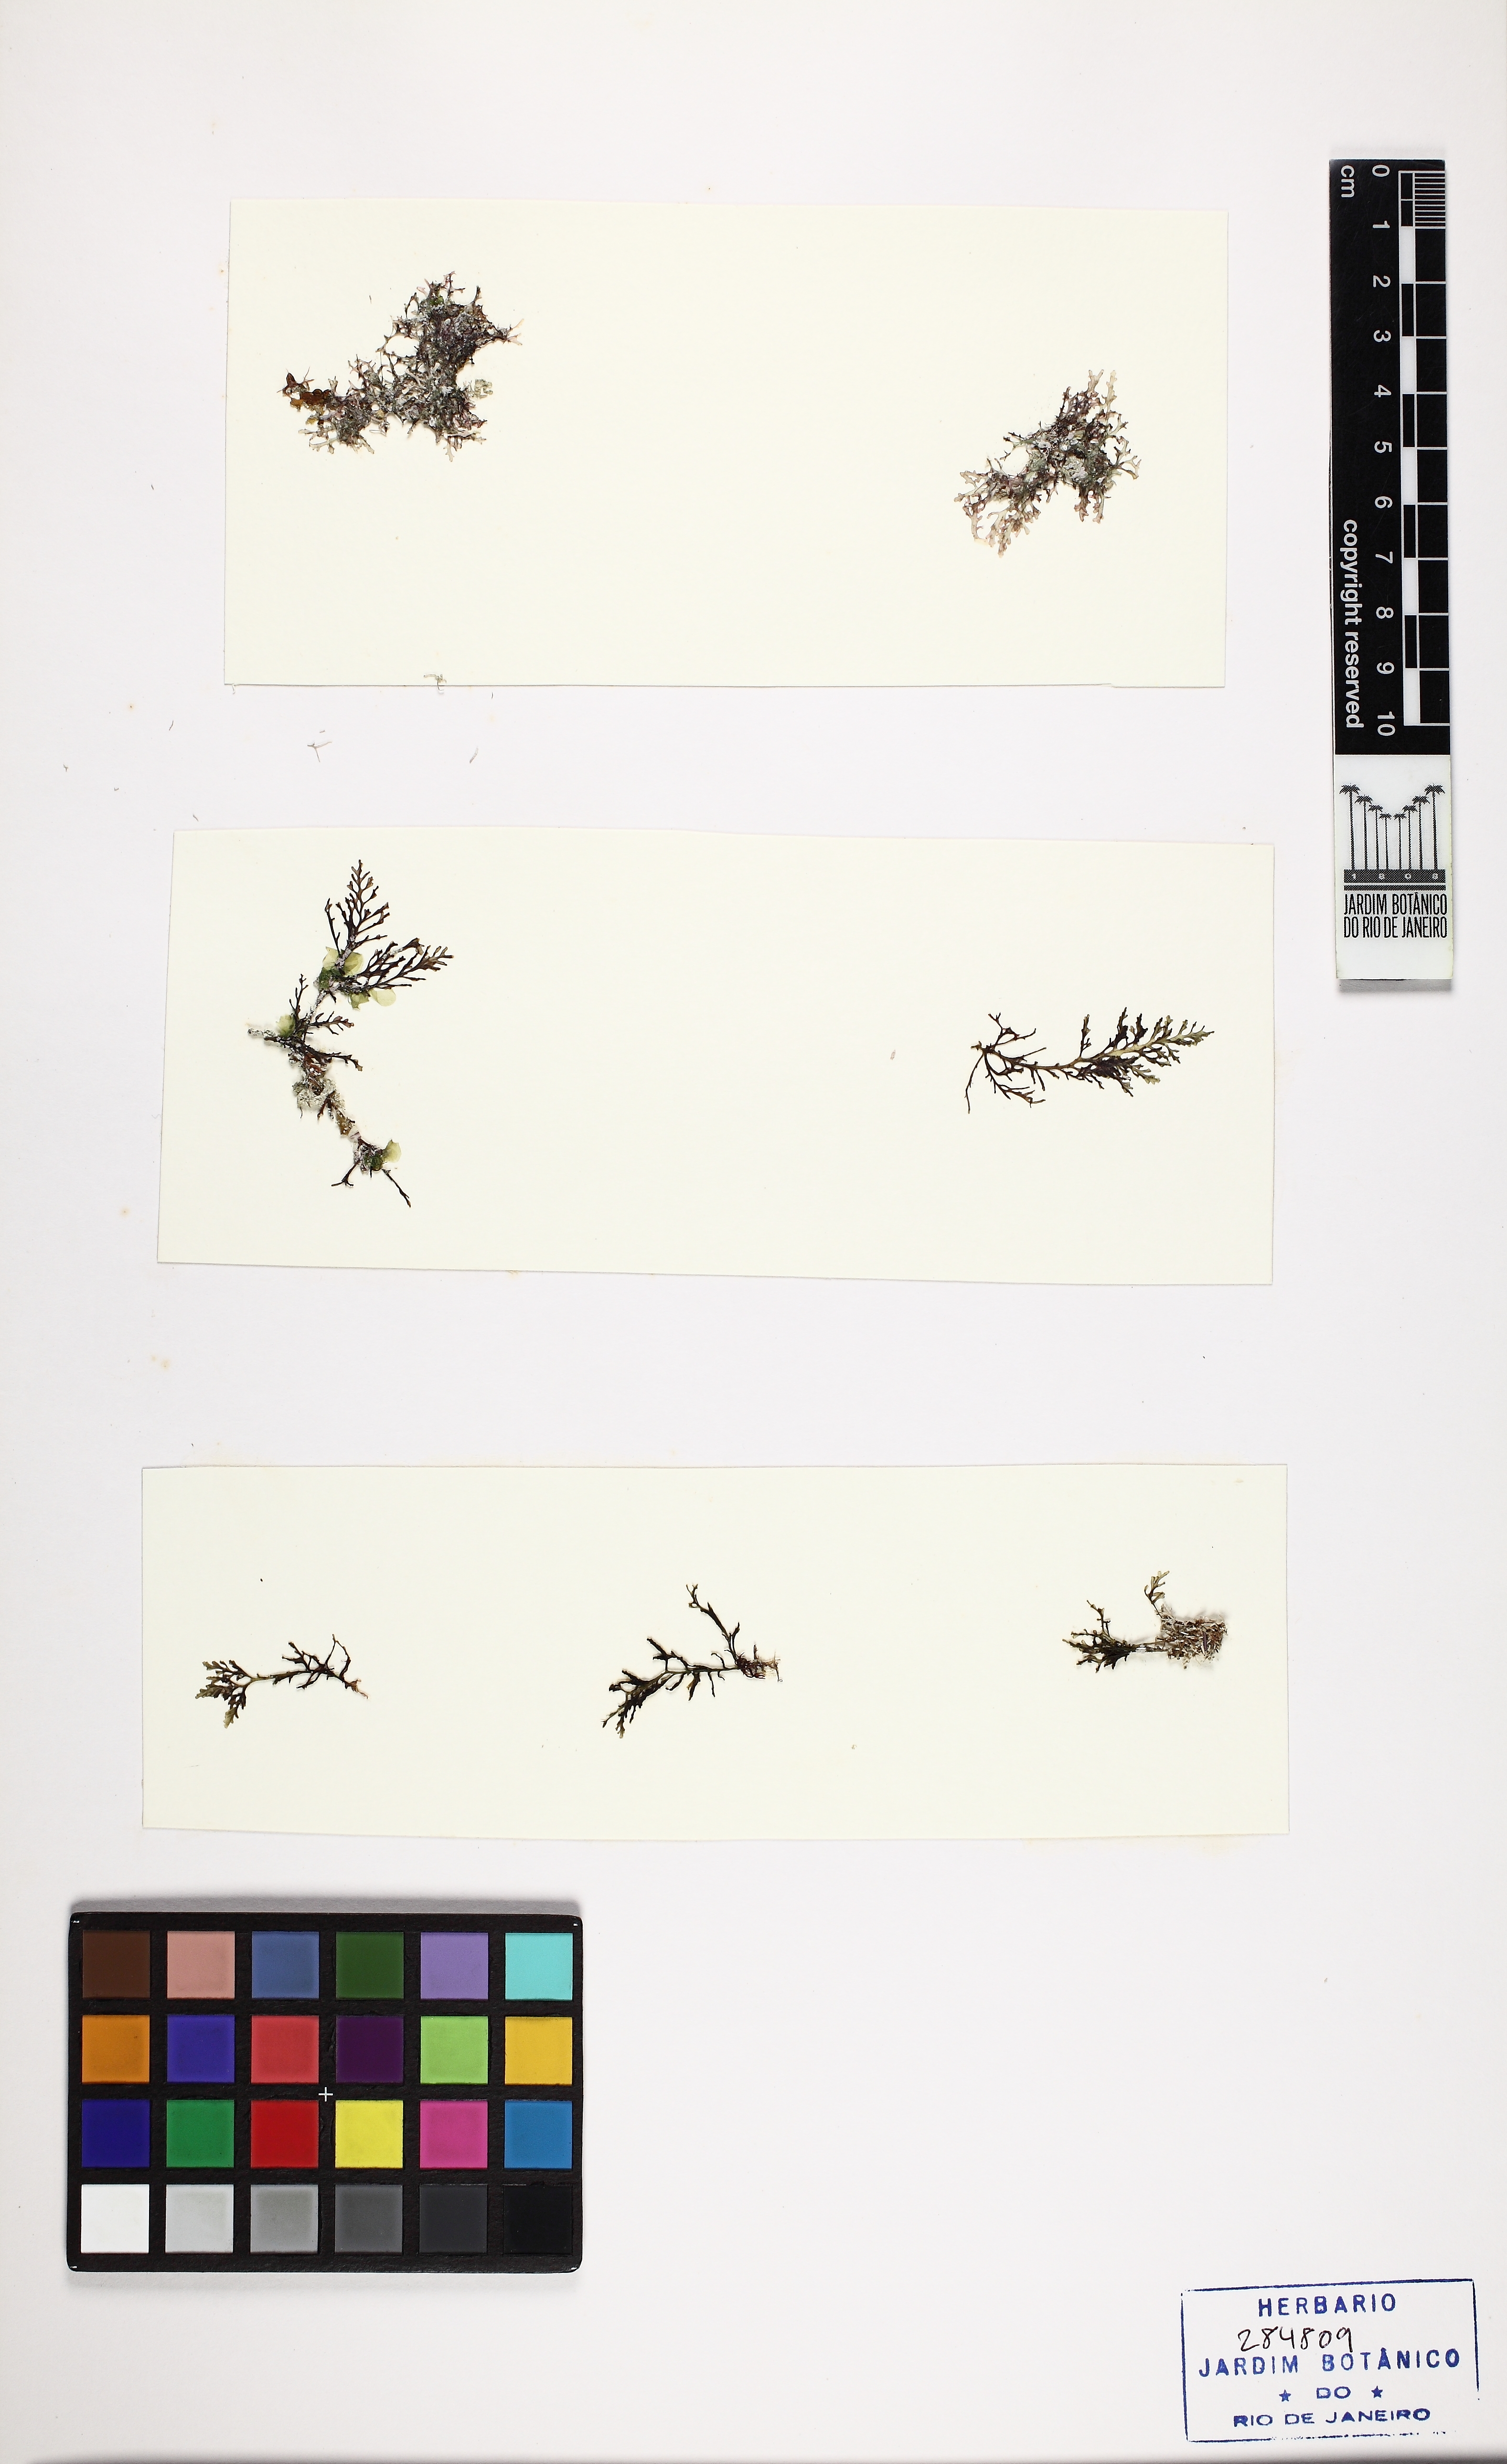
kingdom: Plantae
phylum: Rhodophyta
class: Florideophyceae
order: Ceramiales
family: Rhodomelaceae
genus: Laurencia
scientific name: Laurencia
